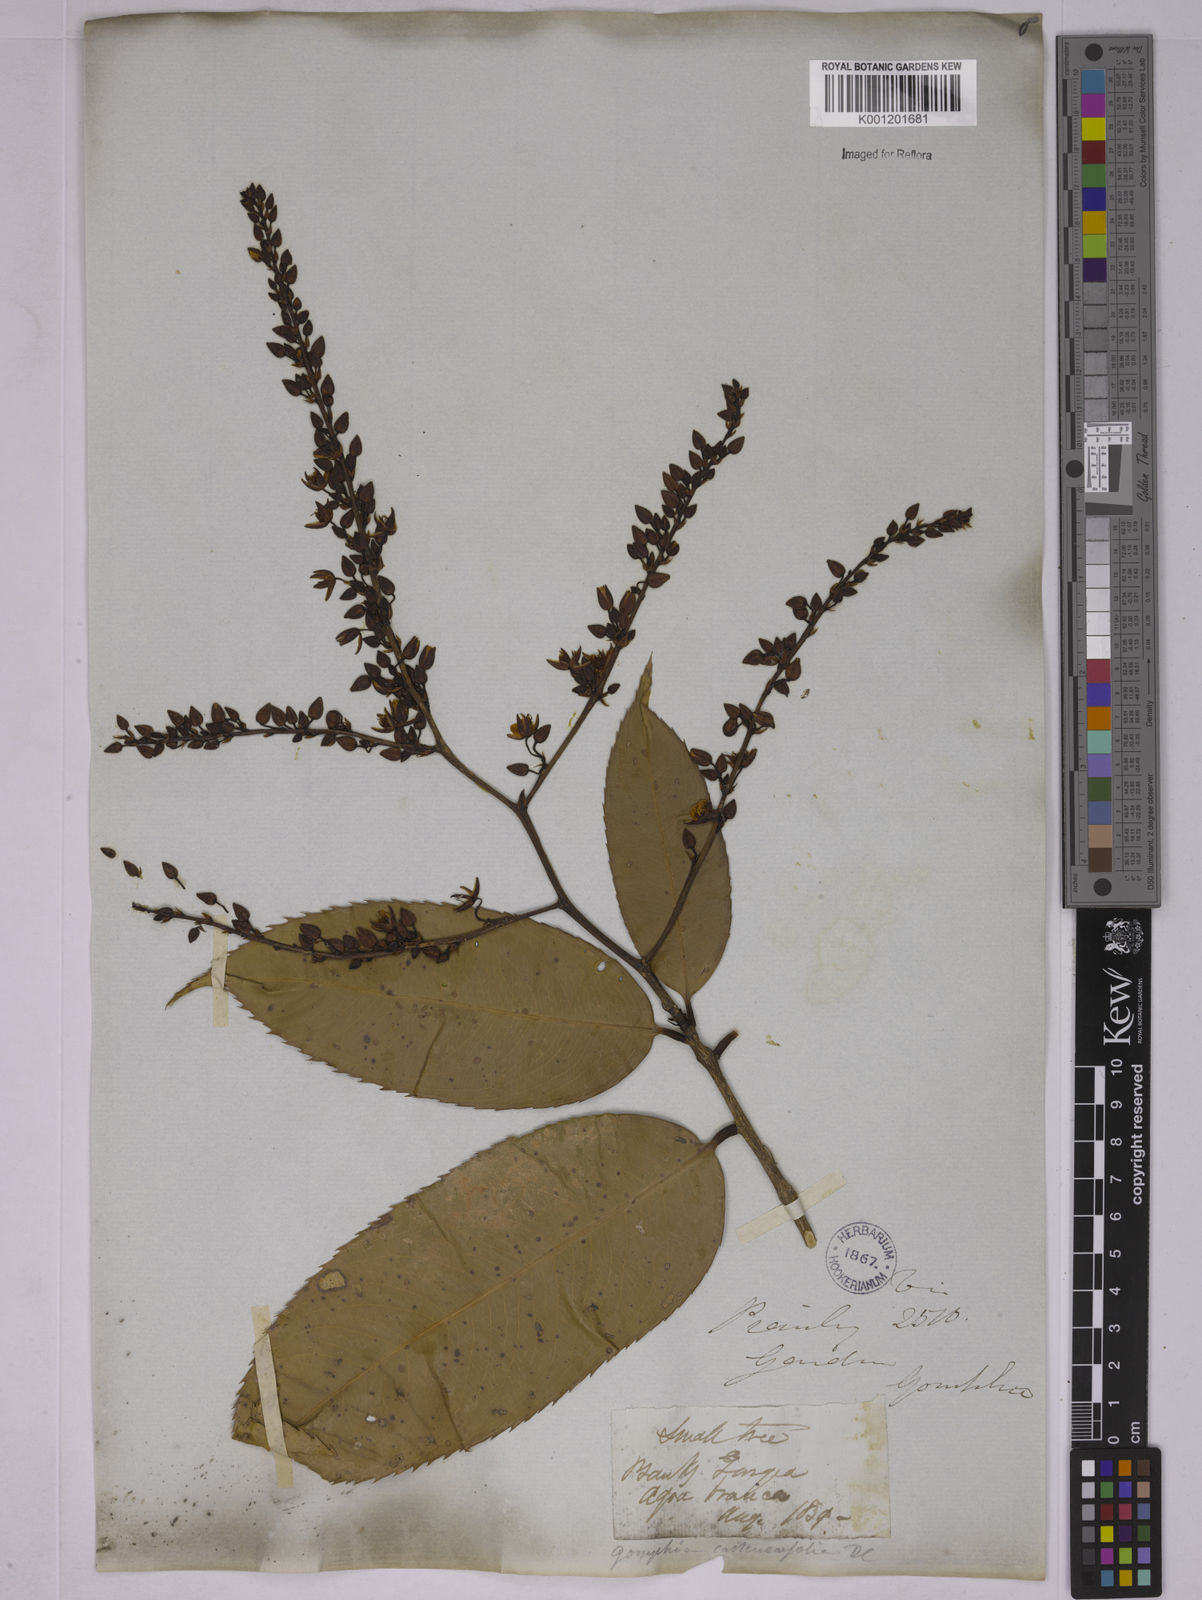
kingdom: Plantae
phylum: Tracheophyta
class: Magnoliopsida
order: Malpighiales
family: Ochnaceae
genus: Ouratea
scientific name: Ouratea castaneifolia
